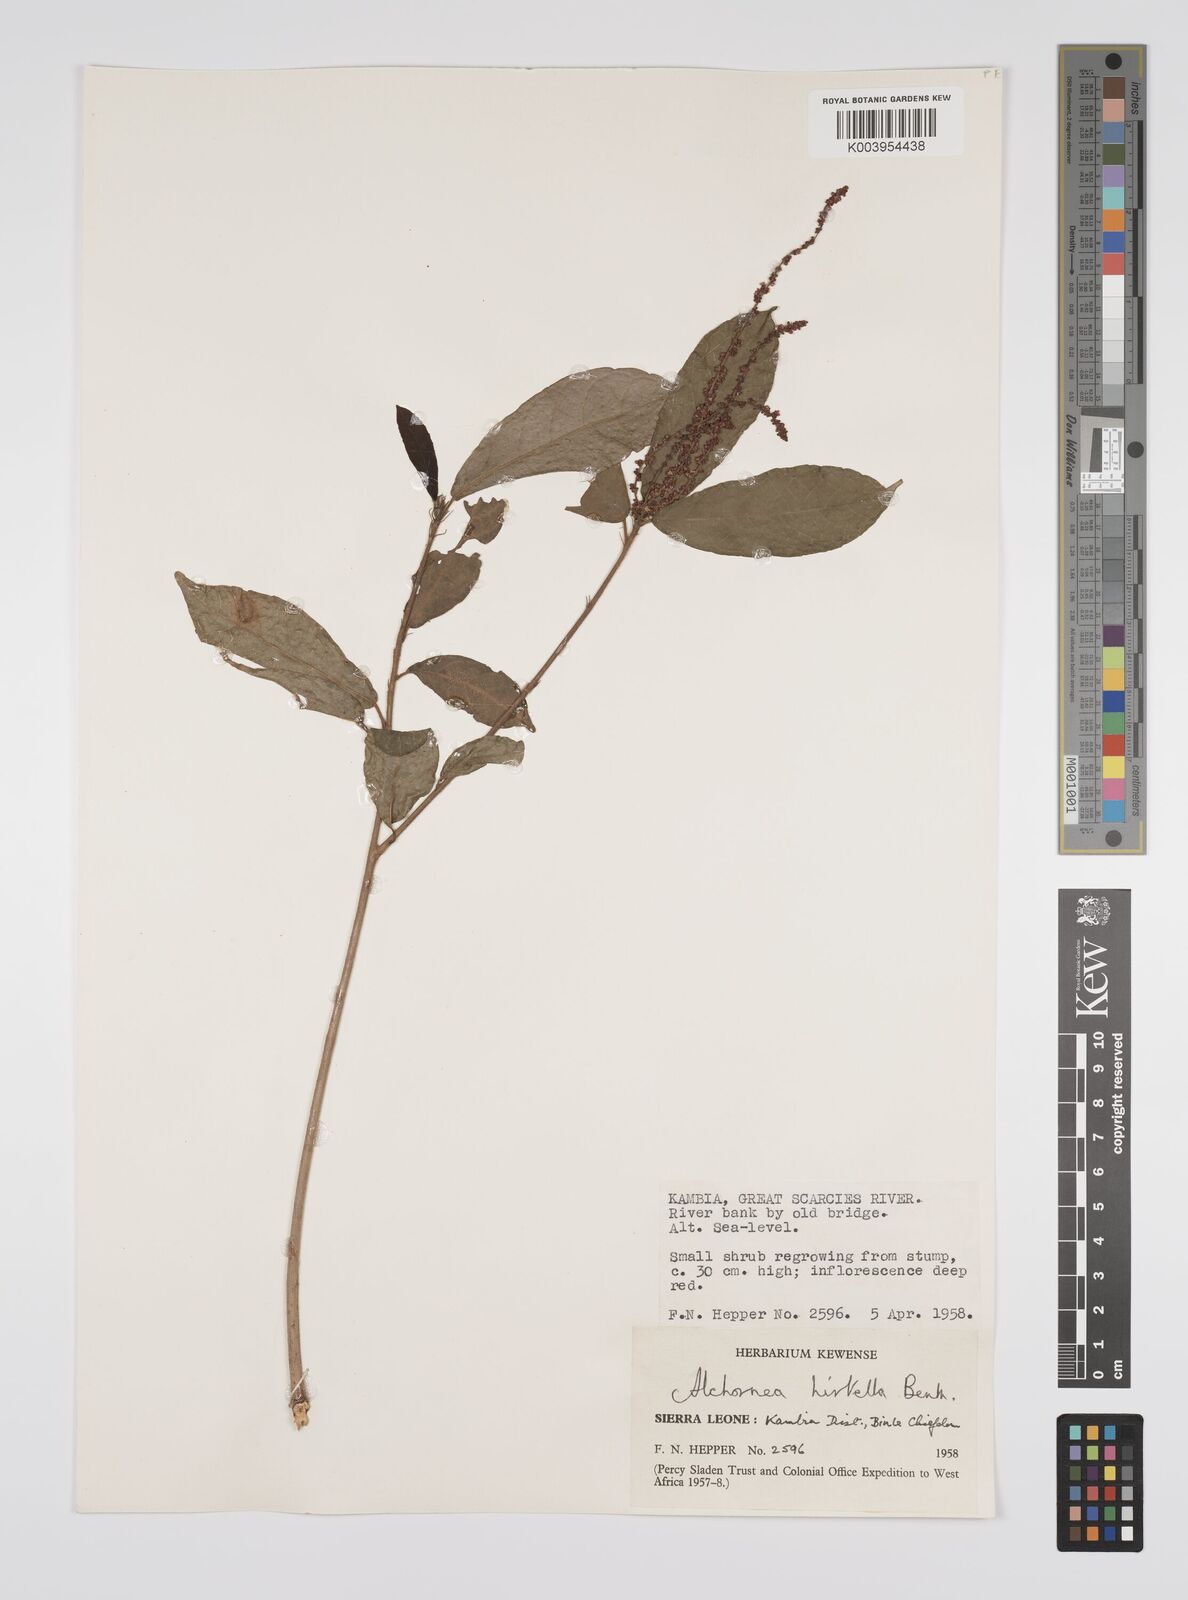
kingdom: Plantae
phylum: Tracheophyta
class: Magnoliopsida
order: Malpighiales
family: Euphorbiaceae
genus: Alchornea
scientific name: Alchornea hirtella
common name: Forest bead-string
